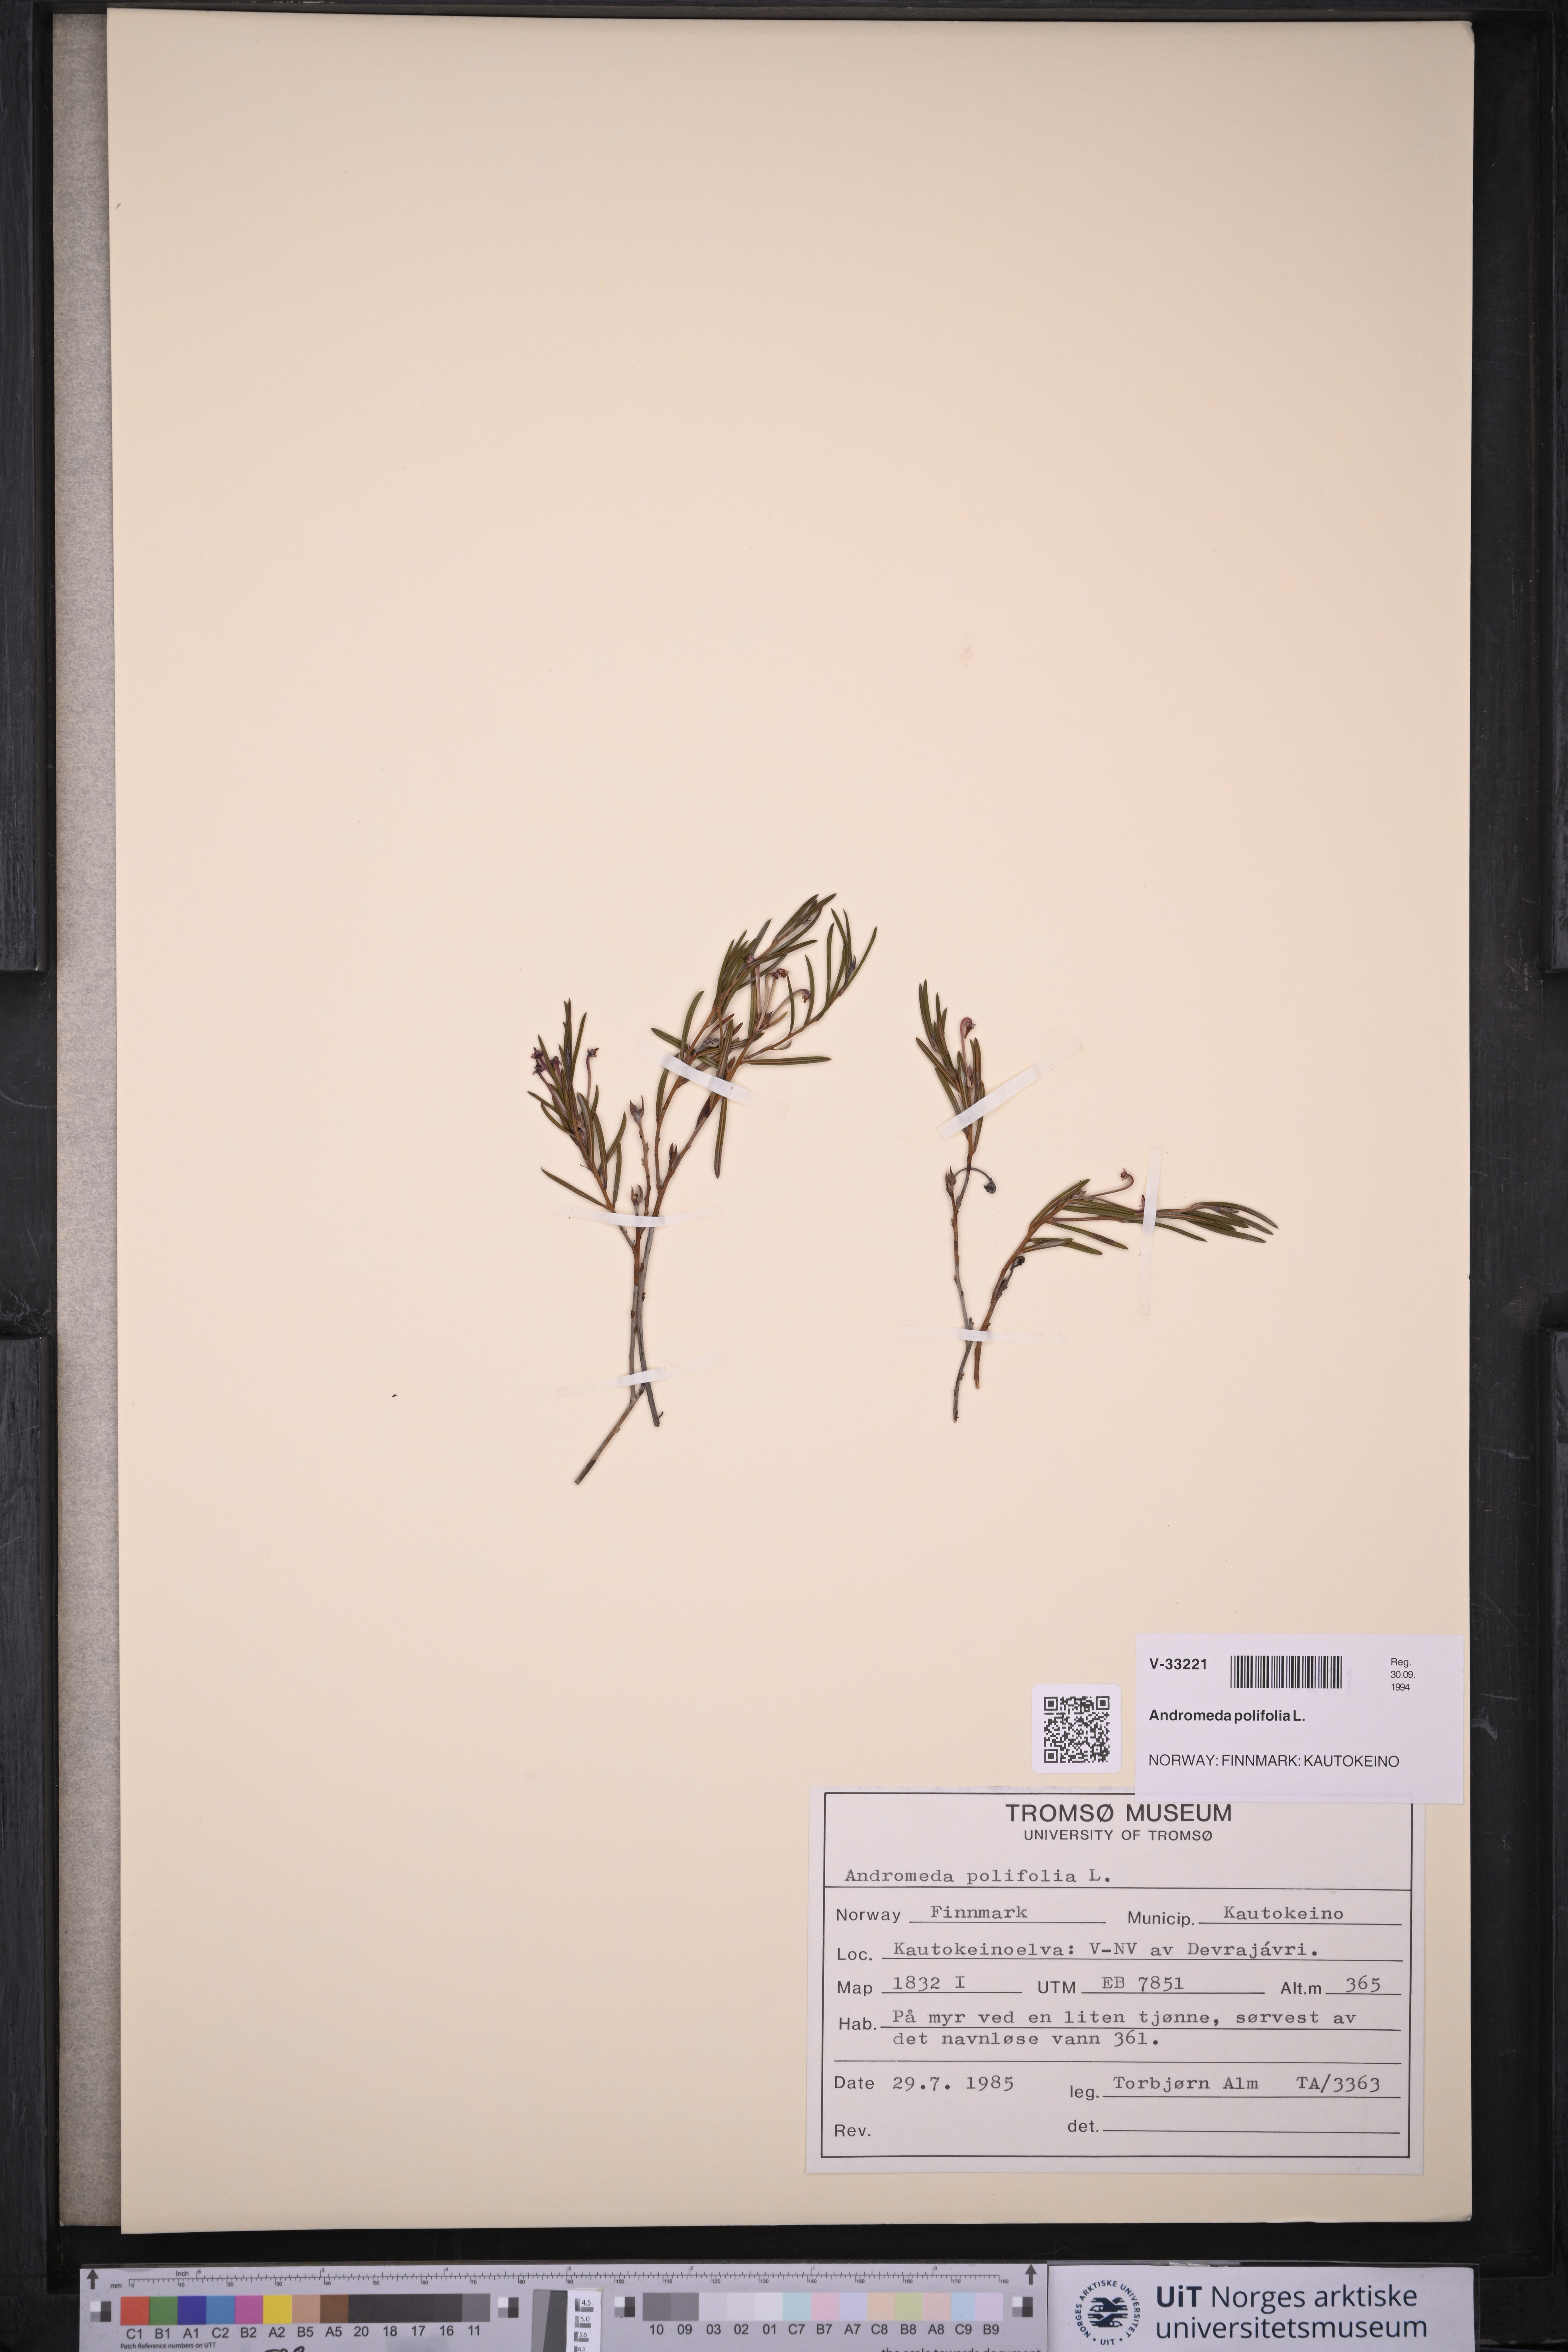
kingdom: Plantae
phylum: Tracheophyta
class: Magnoliopsida
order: Ericales
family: Ericaceae
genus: Andromeda
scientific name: Andromeda polifolia
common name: Bog-rosemary
